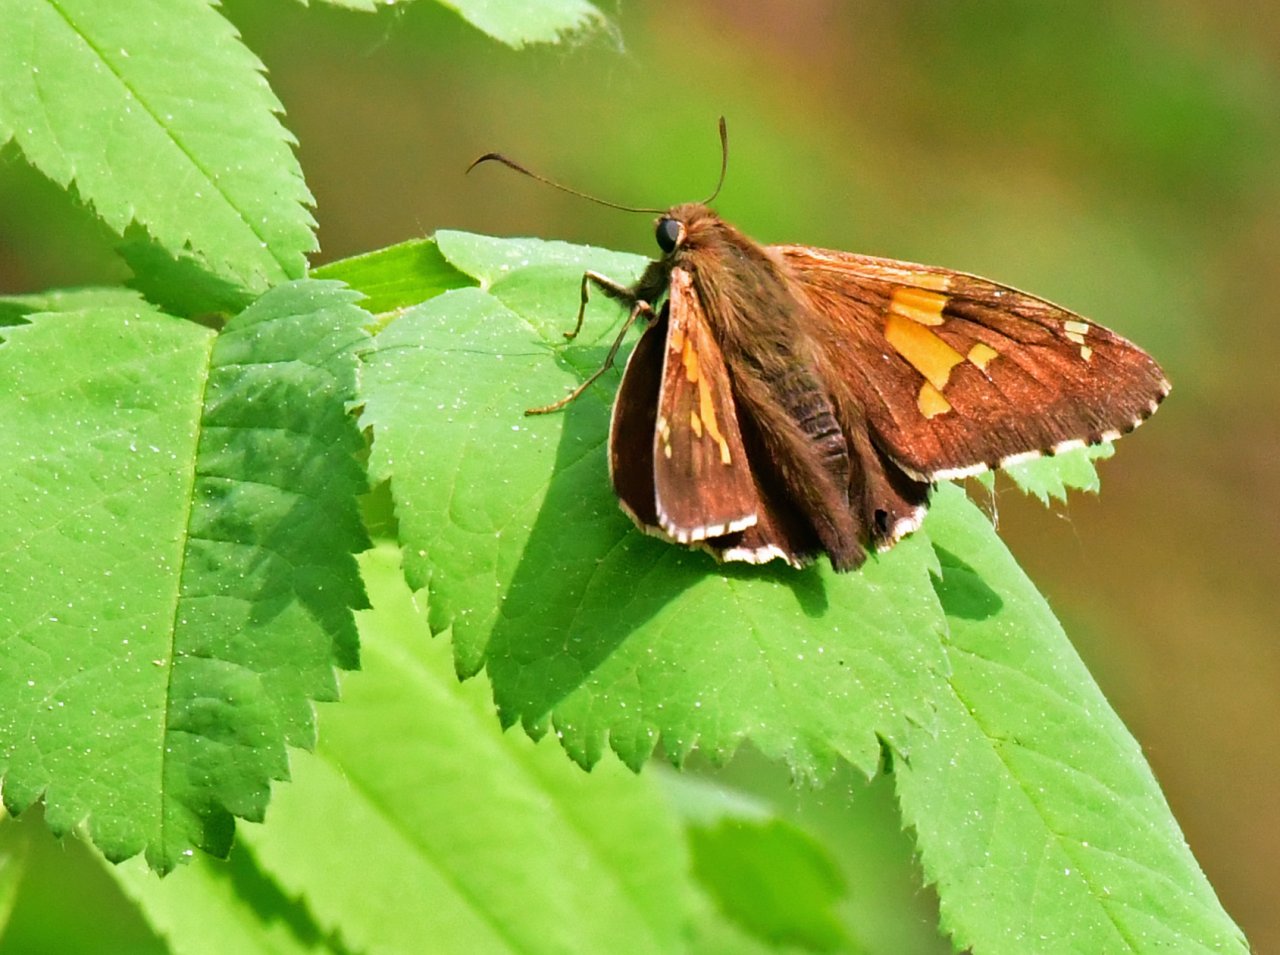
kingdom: Animalia
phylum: Arthropoda
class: Insecta
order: Lepidoptera
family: Hesperiidae
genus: Epargyreus
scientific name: Epargyreus clarus
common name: Silver-spotted Skipper
